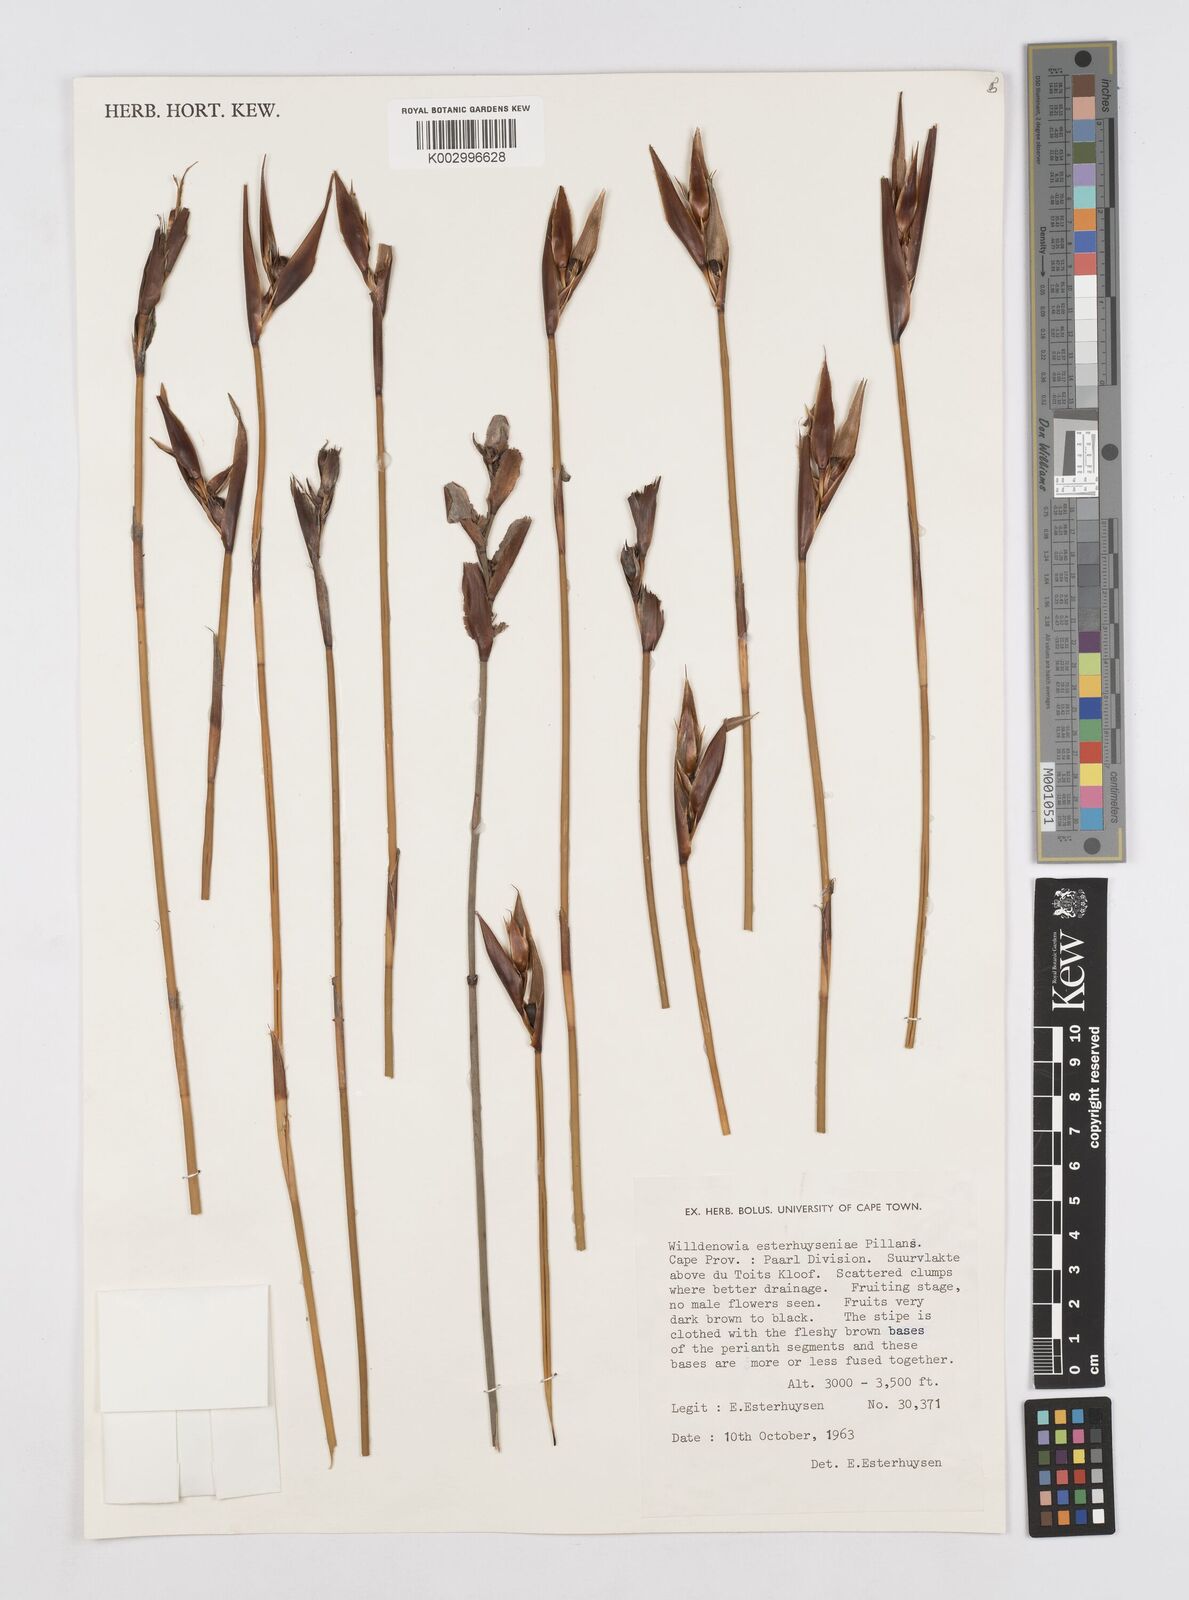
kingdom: Plantae
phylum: Tracheophyta
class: Liliopsida
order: Poales
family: Restionaceae
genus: Ceratocaryum
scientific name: Ceratocaryum fimbriatum
